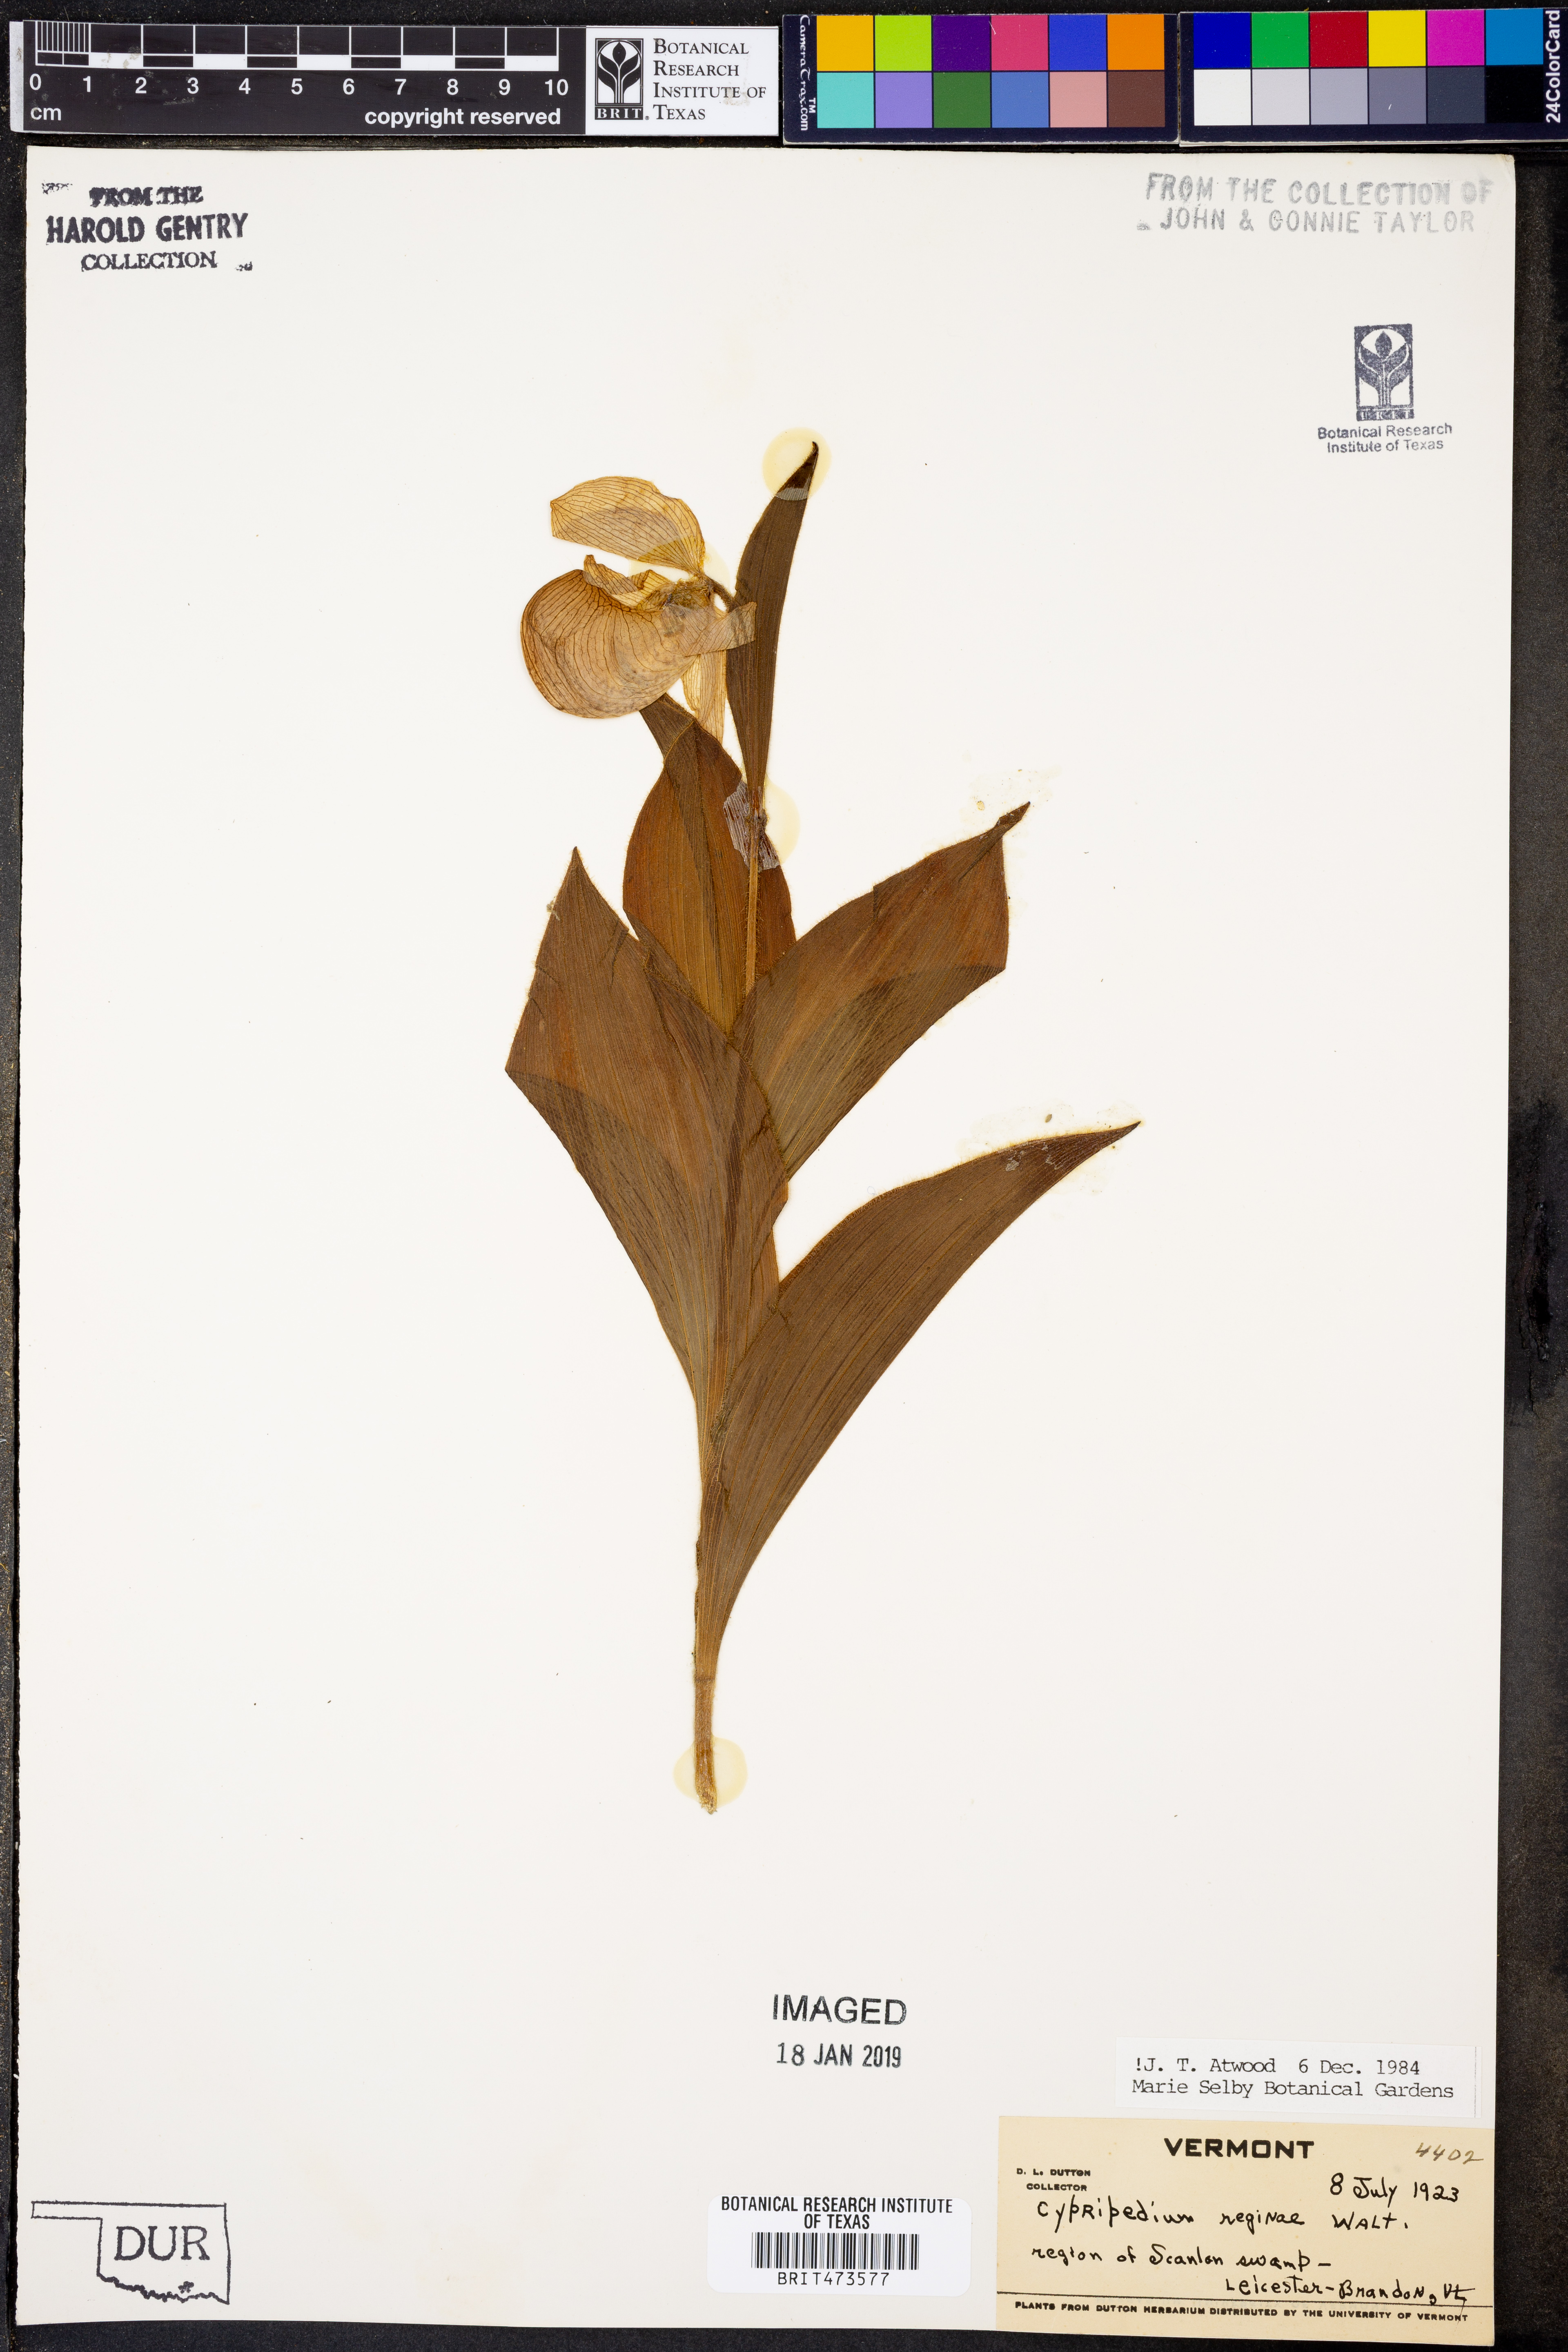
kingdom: Plantae
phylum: Tracheophyta
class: Liliopsida
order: Asparagales
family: Orchidaceae
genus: Cypripedium
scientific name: Cypripedium reginae
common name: Queen lady's-slipper
